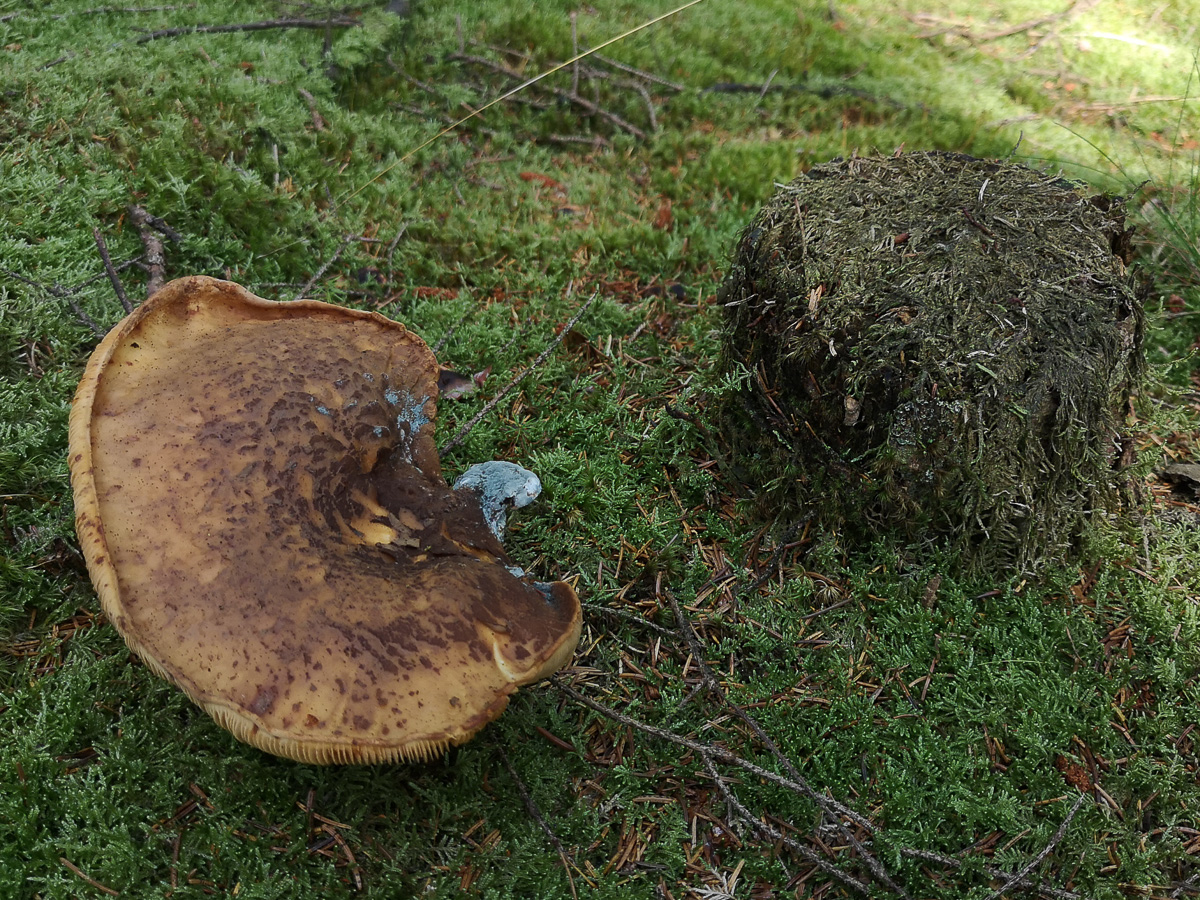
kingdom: Fungi
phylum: Basidiomycota
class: Agaricomycetes
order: Boletales
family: Tapinellaceae
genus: Tapinella
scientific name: Tapinella atrotomentosa
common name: sortfiltet viftesvamp
